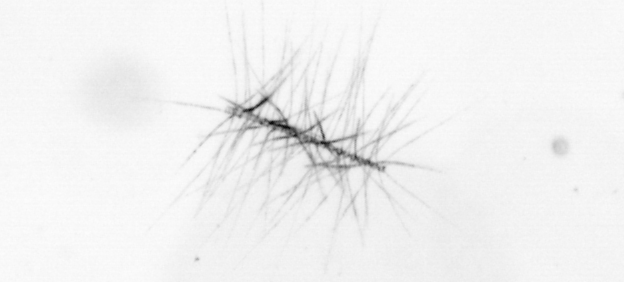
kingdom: Chromista
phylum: Ochrophyta
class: Bacillariophyceae
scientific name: Bacillariophyceae
